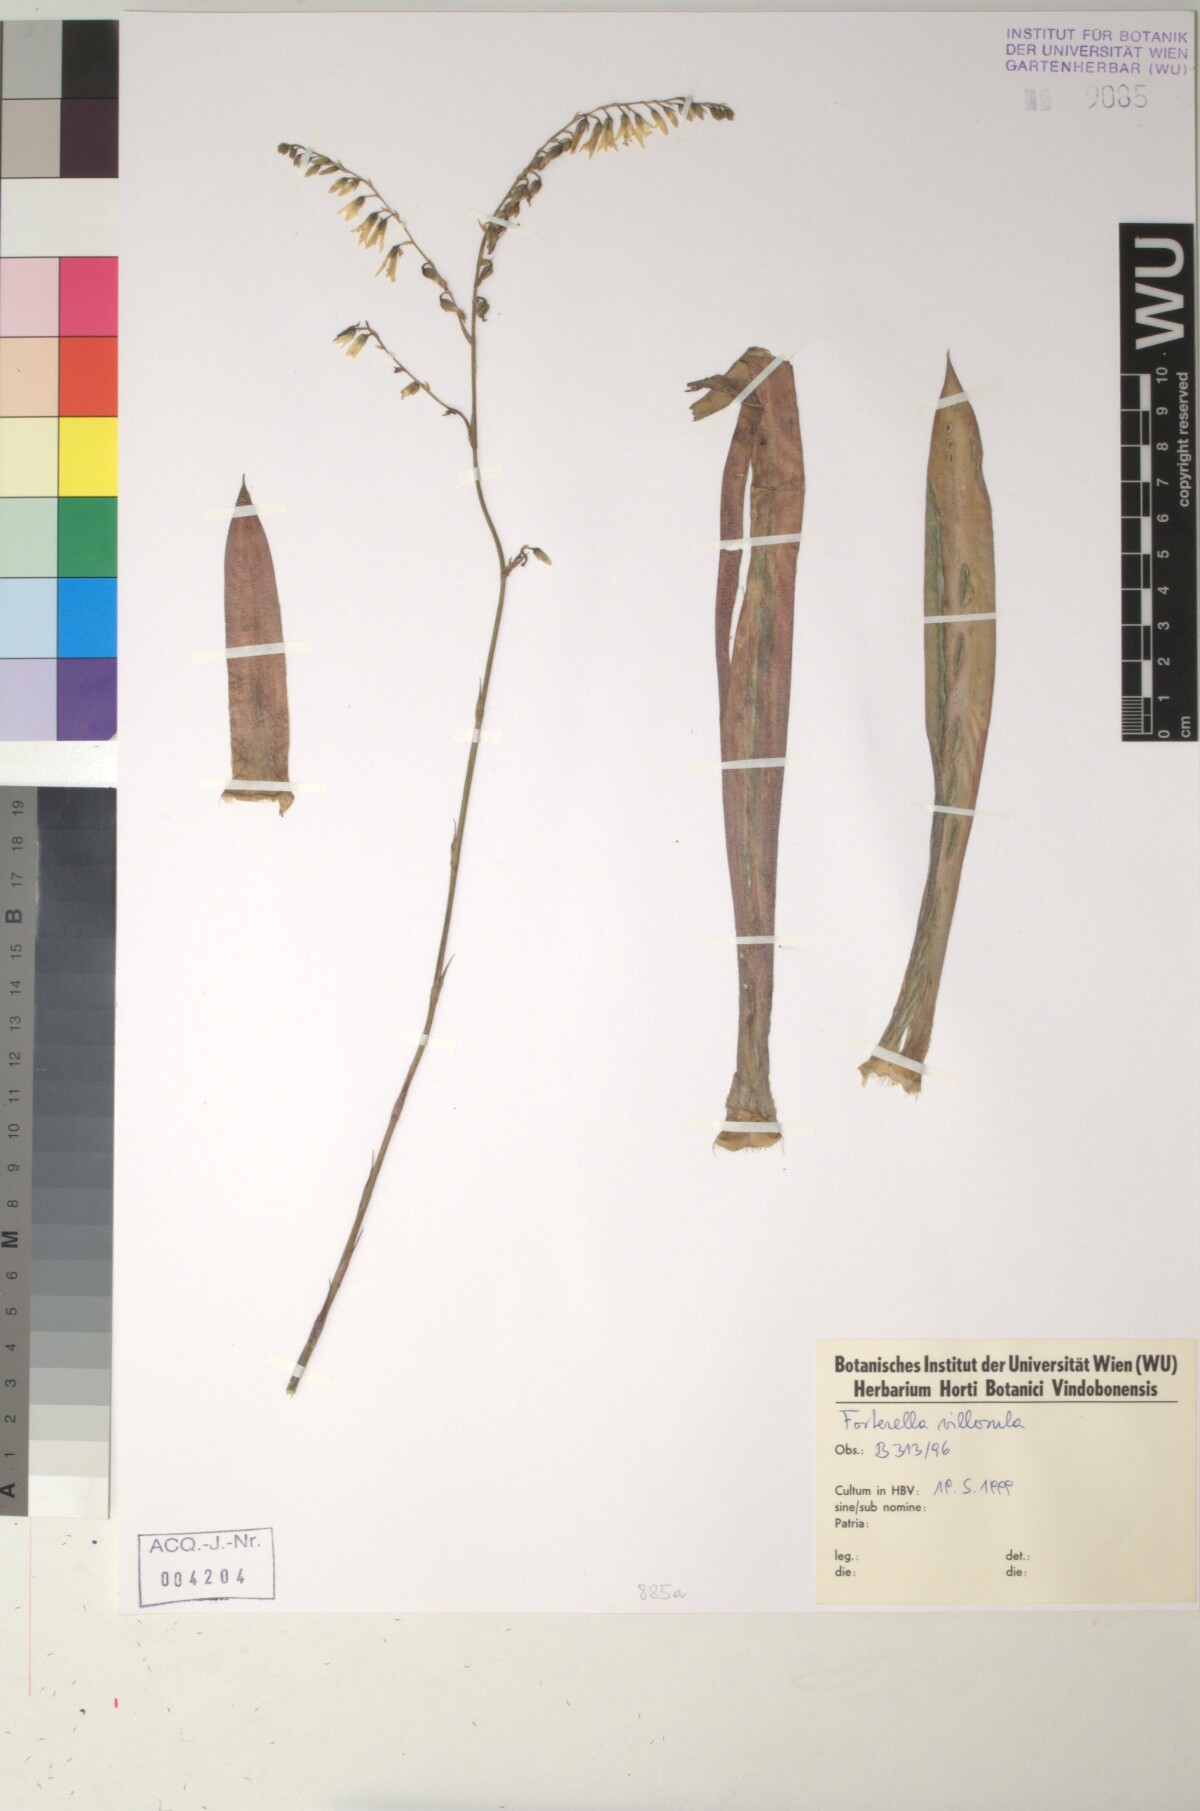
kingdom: Plantae
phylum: Tracheophyta
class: Liliopsida
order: Poales
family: Bromeliaceae
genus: Fosterella
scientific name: Fosterella penduliflora
